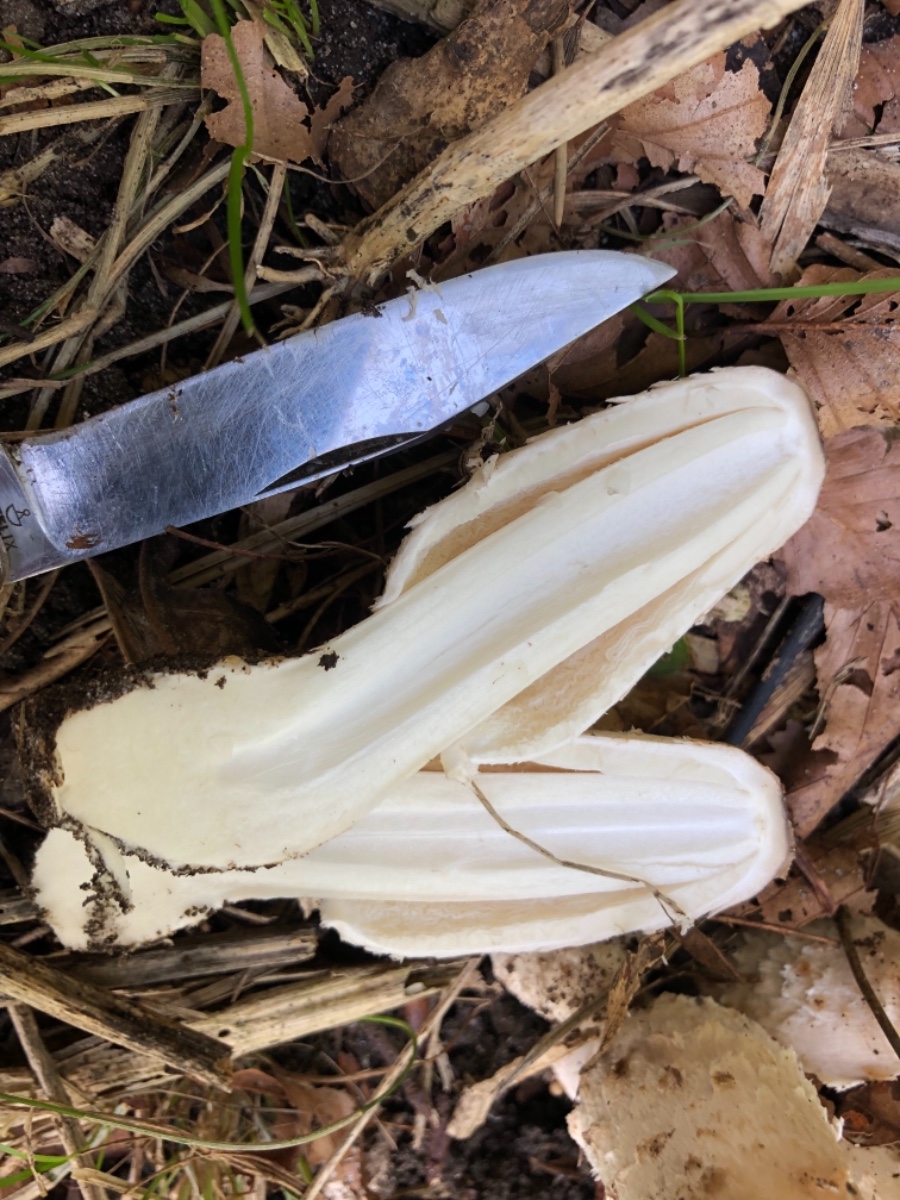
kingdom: Fungi
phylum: Basidiomycota
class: Agaricomycetes
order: Agaricales
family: Agaricaceae
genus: Coprinus
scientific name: Coprinus comatus
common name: stor parykhat
